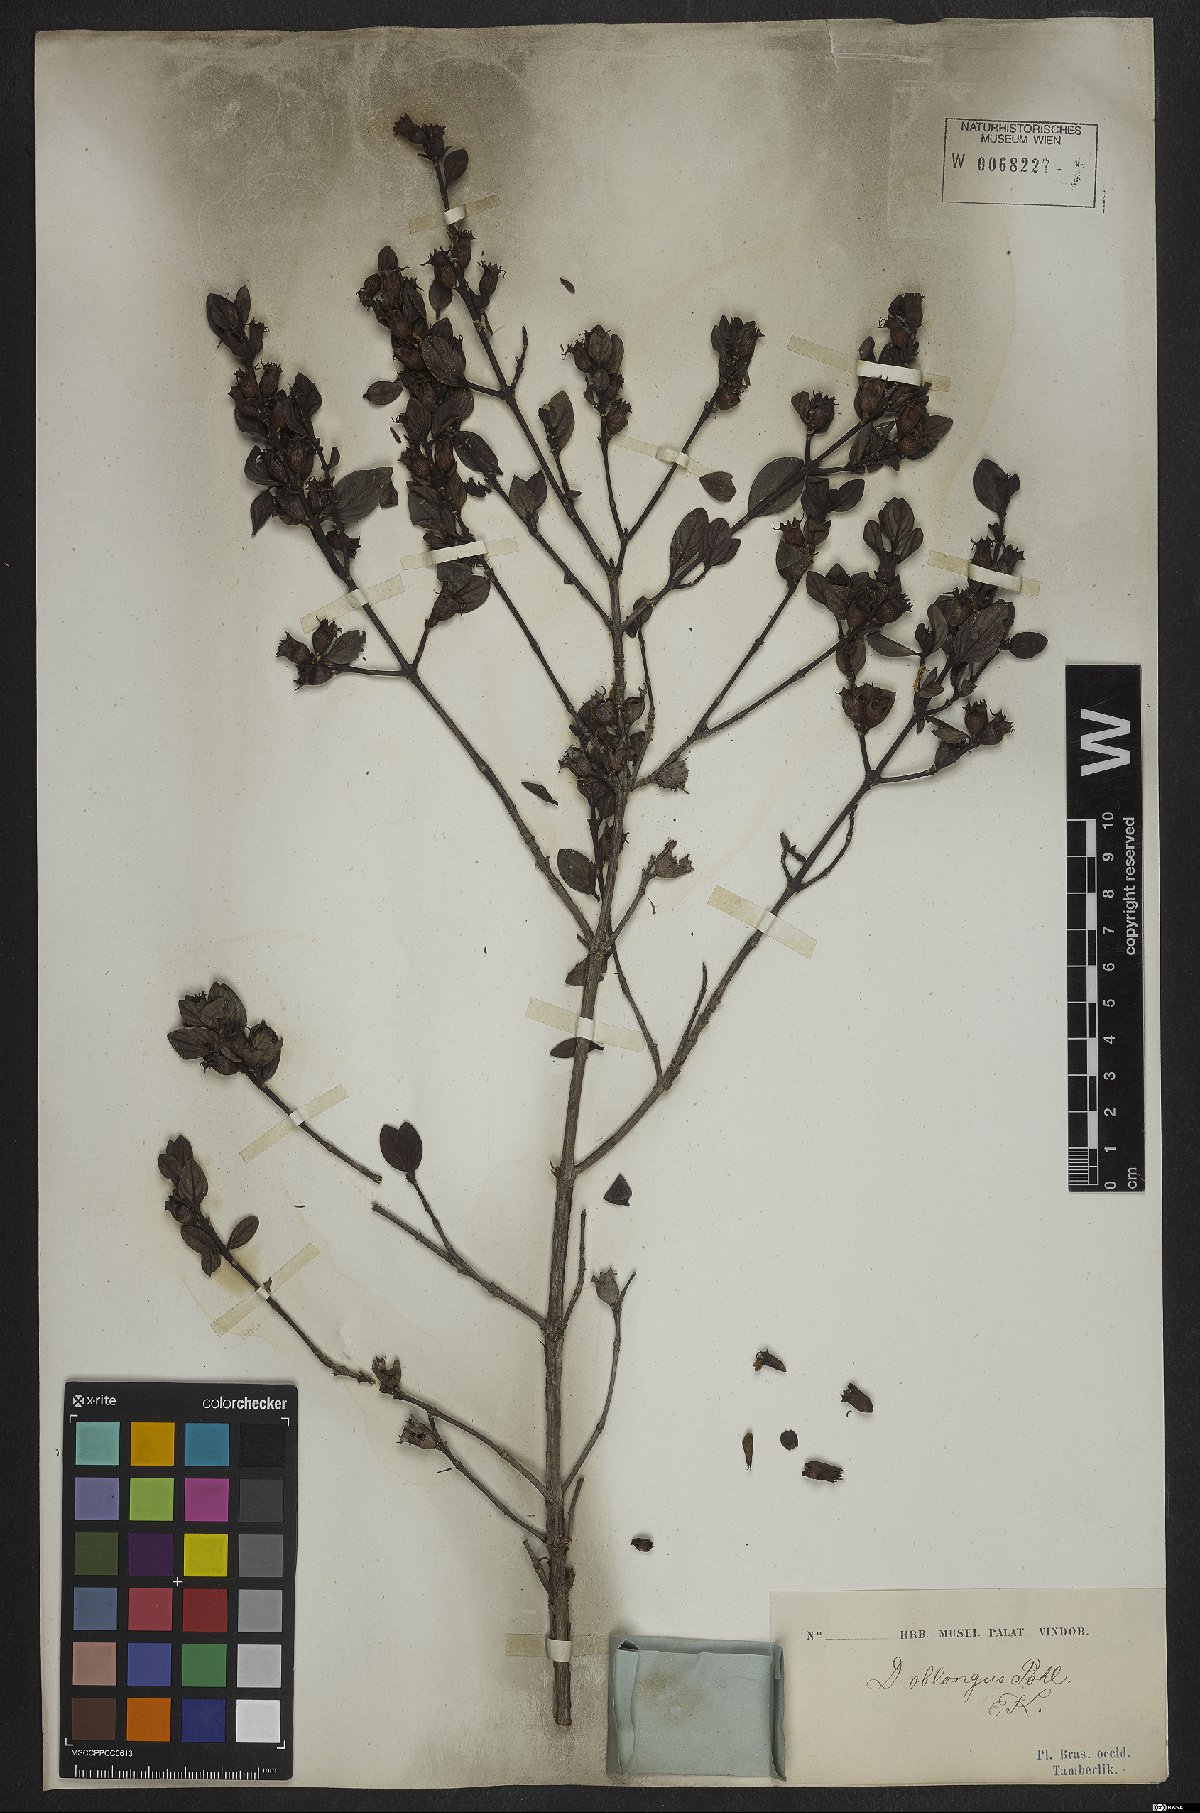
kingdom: Plantae
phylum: Tracheophyta
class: Magnoliopsida
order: Myrtales
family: Lythraceae
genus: Diplusodon
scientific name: Diplusodon oblongus
